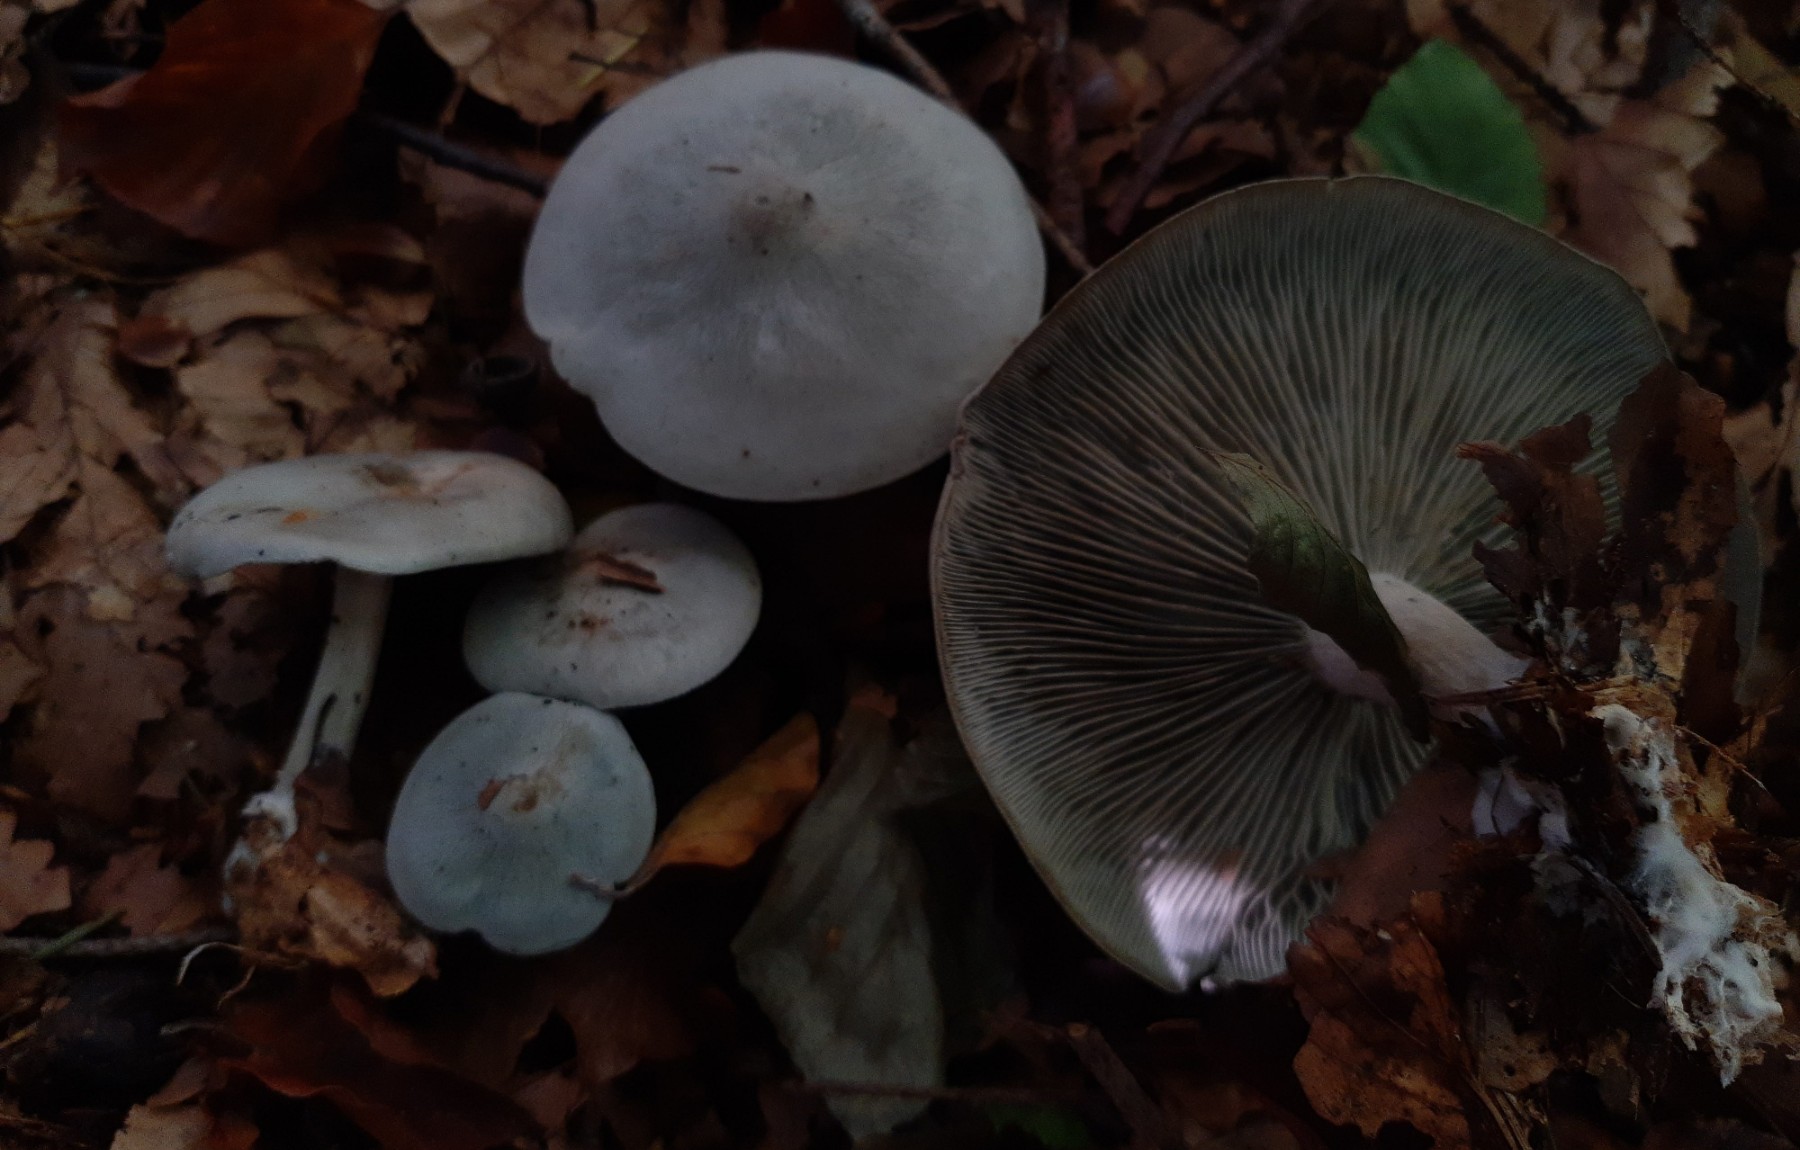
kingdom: Fungi
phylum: Basidiomycota
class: Agaricomycetes
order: Agaricales
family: Tricholomataceae
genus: Clitocybe
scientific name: Clitocybe odora
